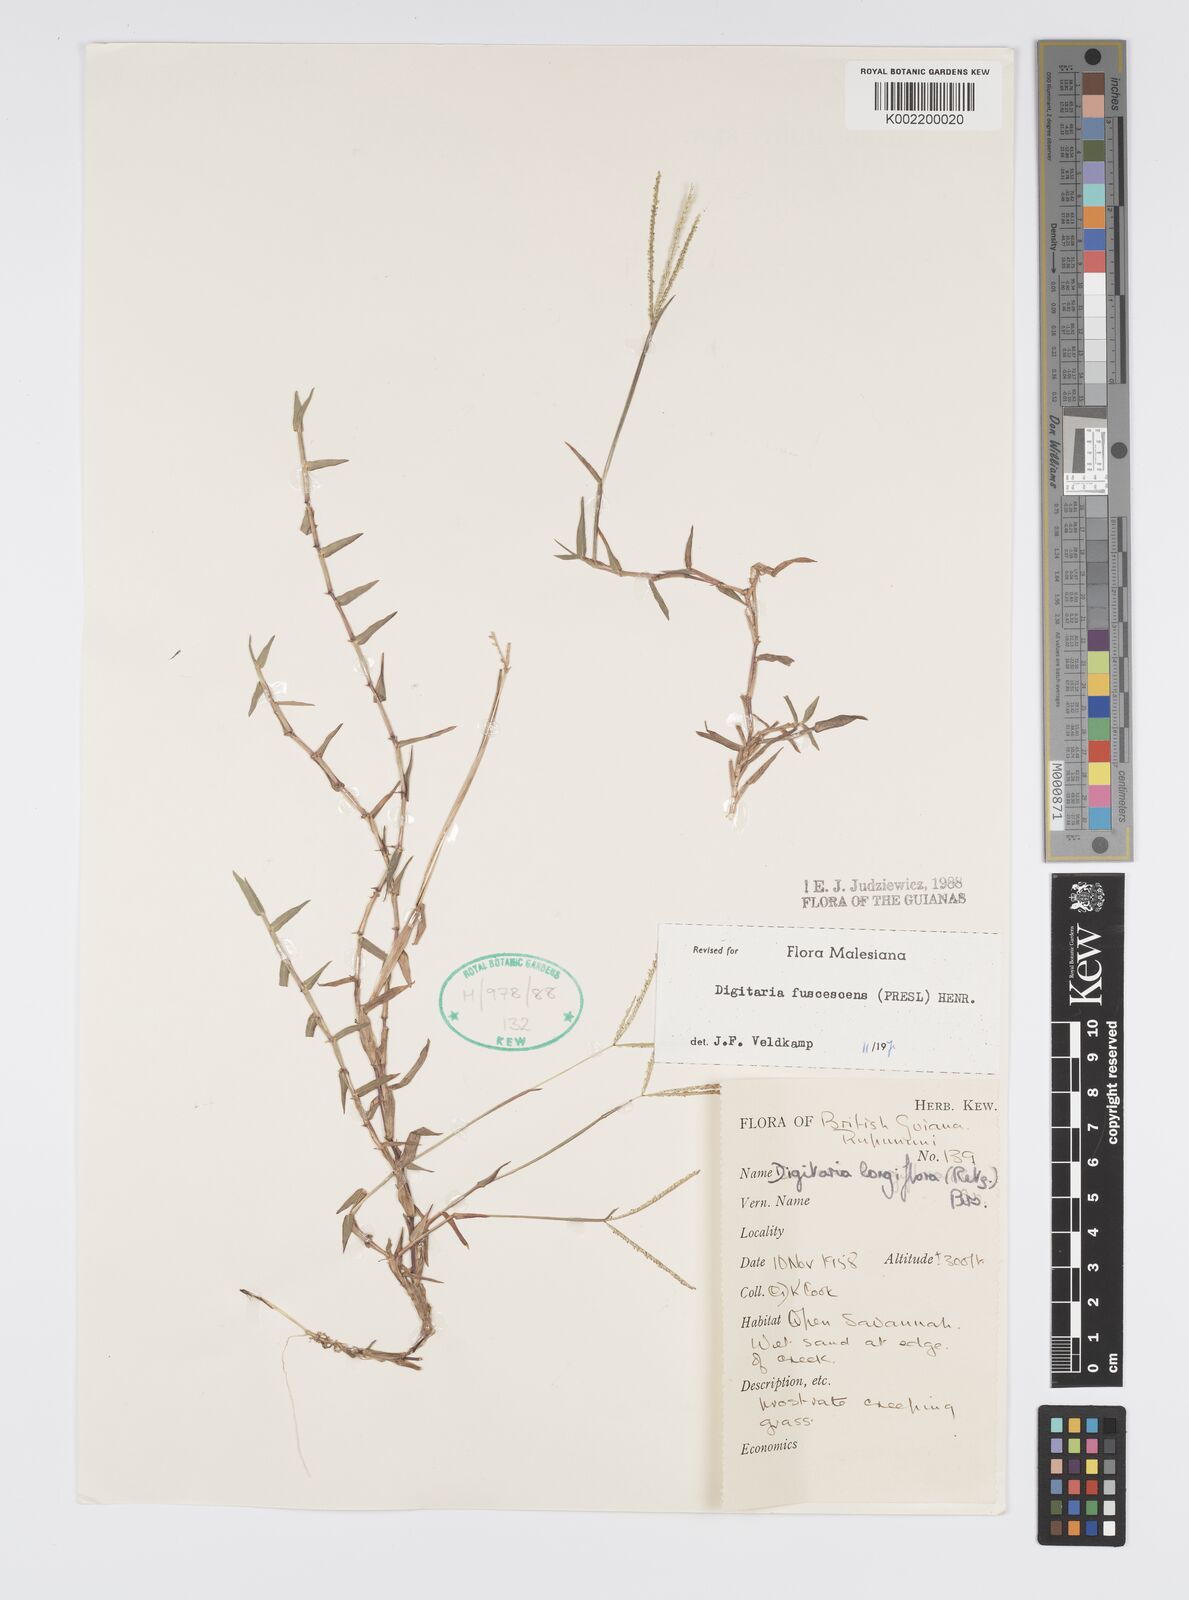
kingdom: Plantae
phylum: Tracheophyta
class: Liliopsida
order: Poales
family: Poaceae
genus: Digitaria
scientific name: Digitaria fuscescens
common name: Yellow crabgrass
